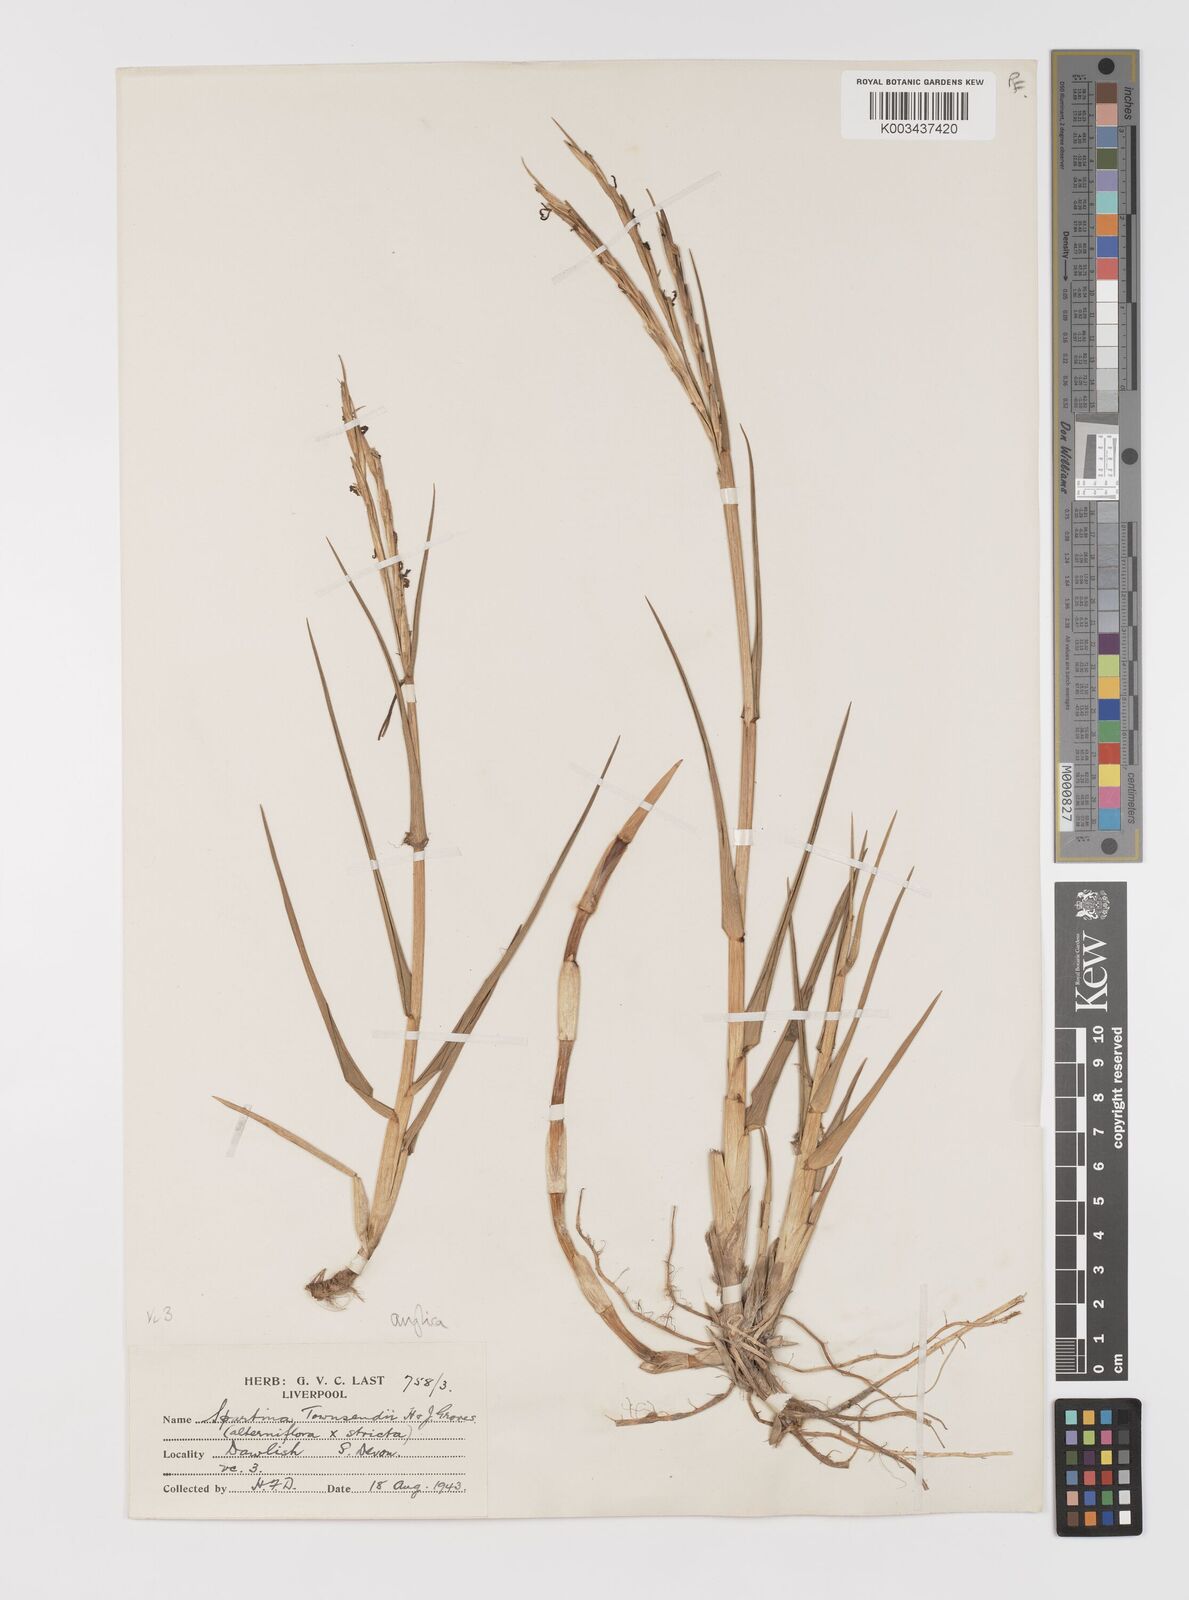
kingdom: Plantae
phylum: Tracheophyta
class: Liliopsida
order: Poales
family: Poaceae
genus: Sporobolus
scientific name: Sporobolus anglicus
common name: English cordgrass
